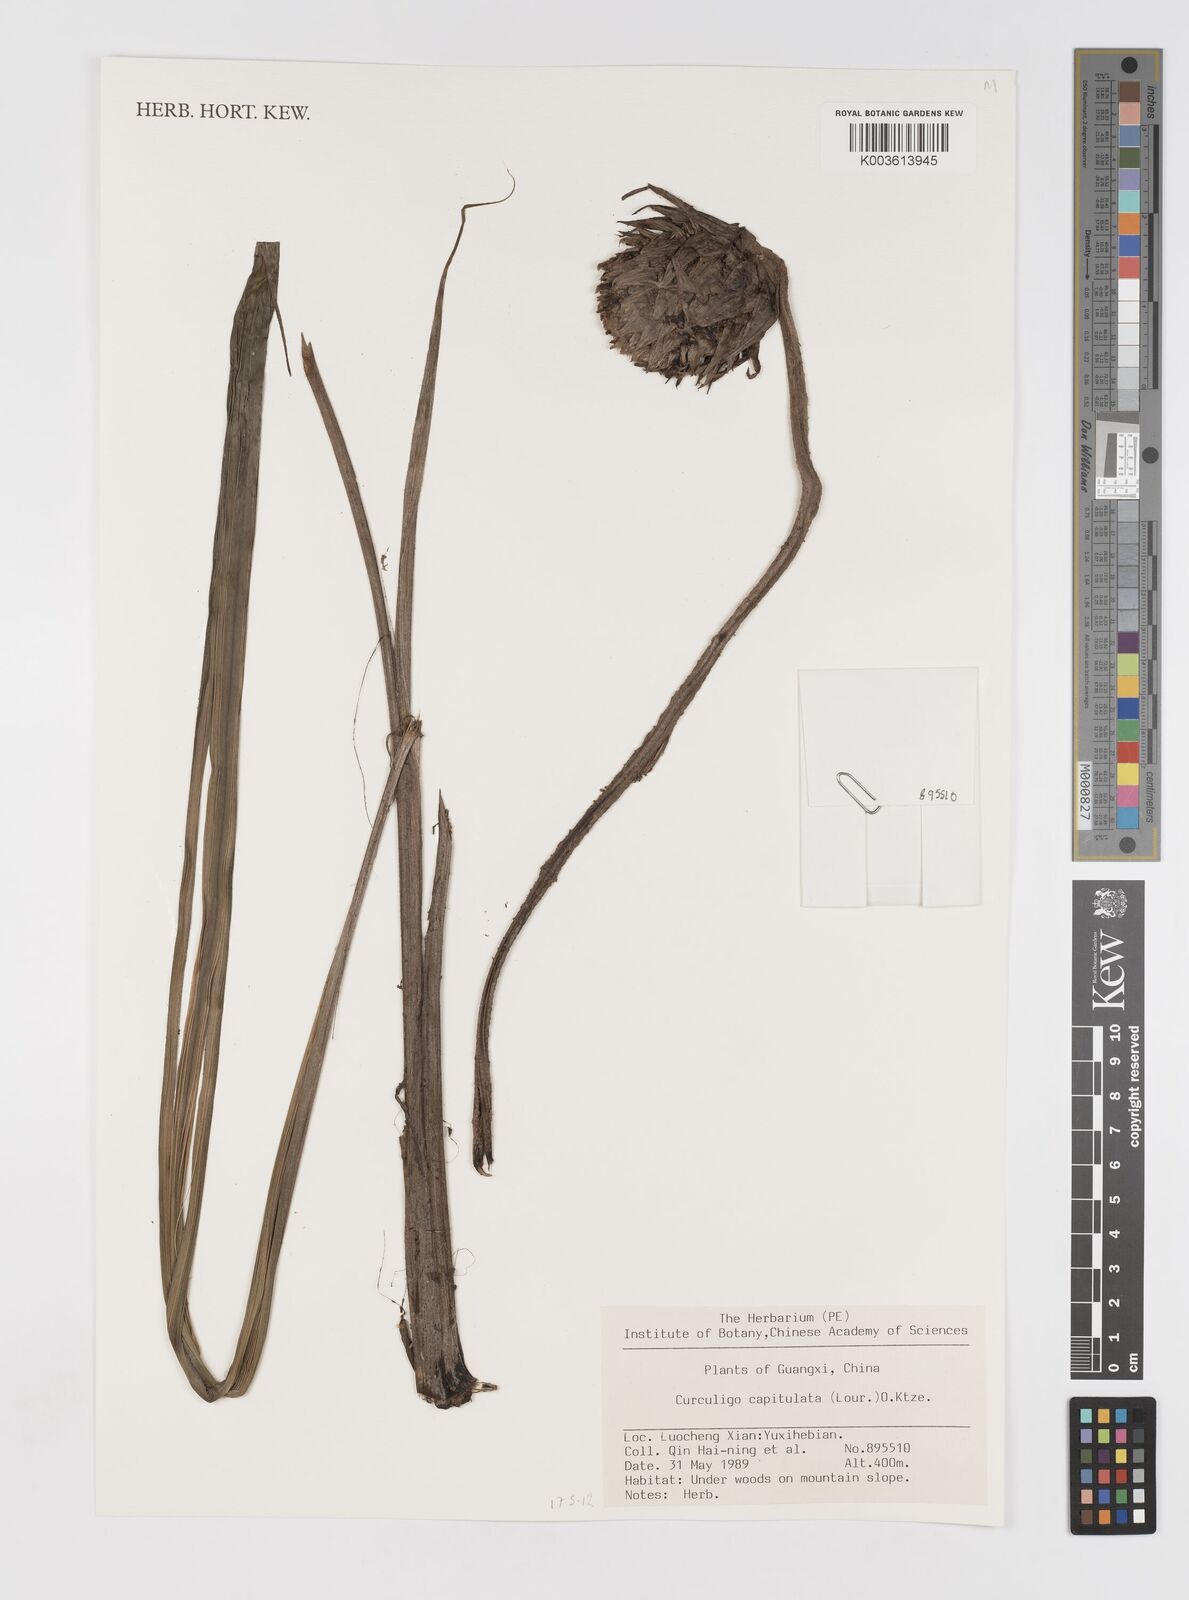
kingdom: Plantae
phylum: Tracheophyta
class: Liliopsida
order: Asparagales
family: Hypoxidaceae
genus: Curculigo
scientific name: Curculigo capitulata
